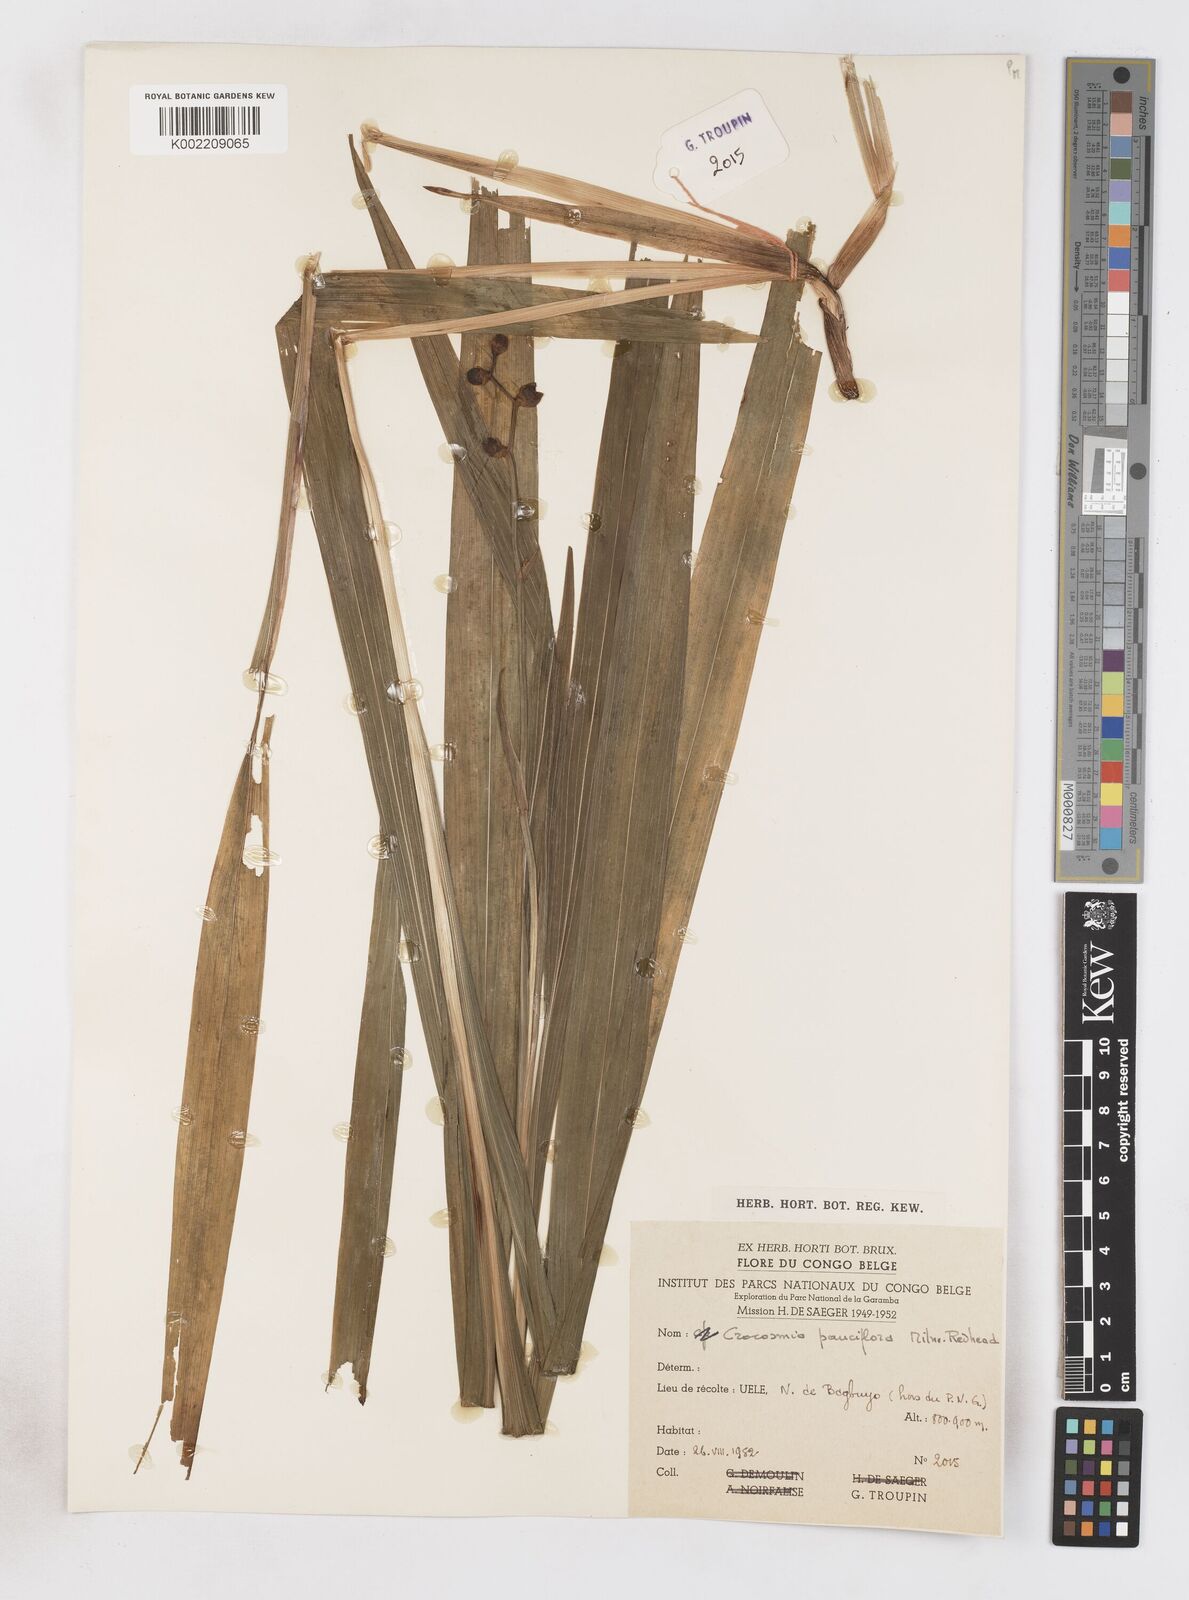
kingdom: Plantae
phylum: Tracheophyta
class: Liliopsida
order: Asparagales
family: Iridaceae
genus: Crocosmia
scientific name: Crocosmia aurea
